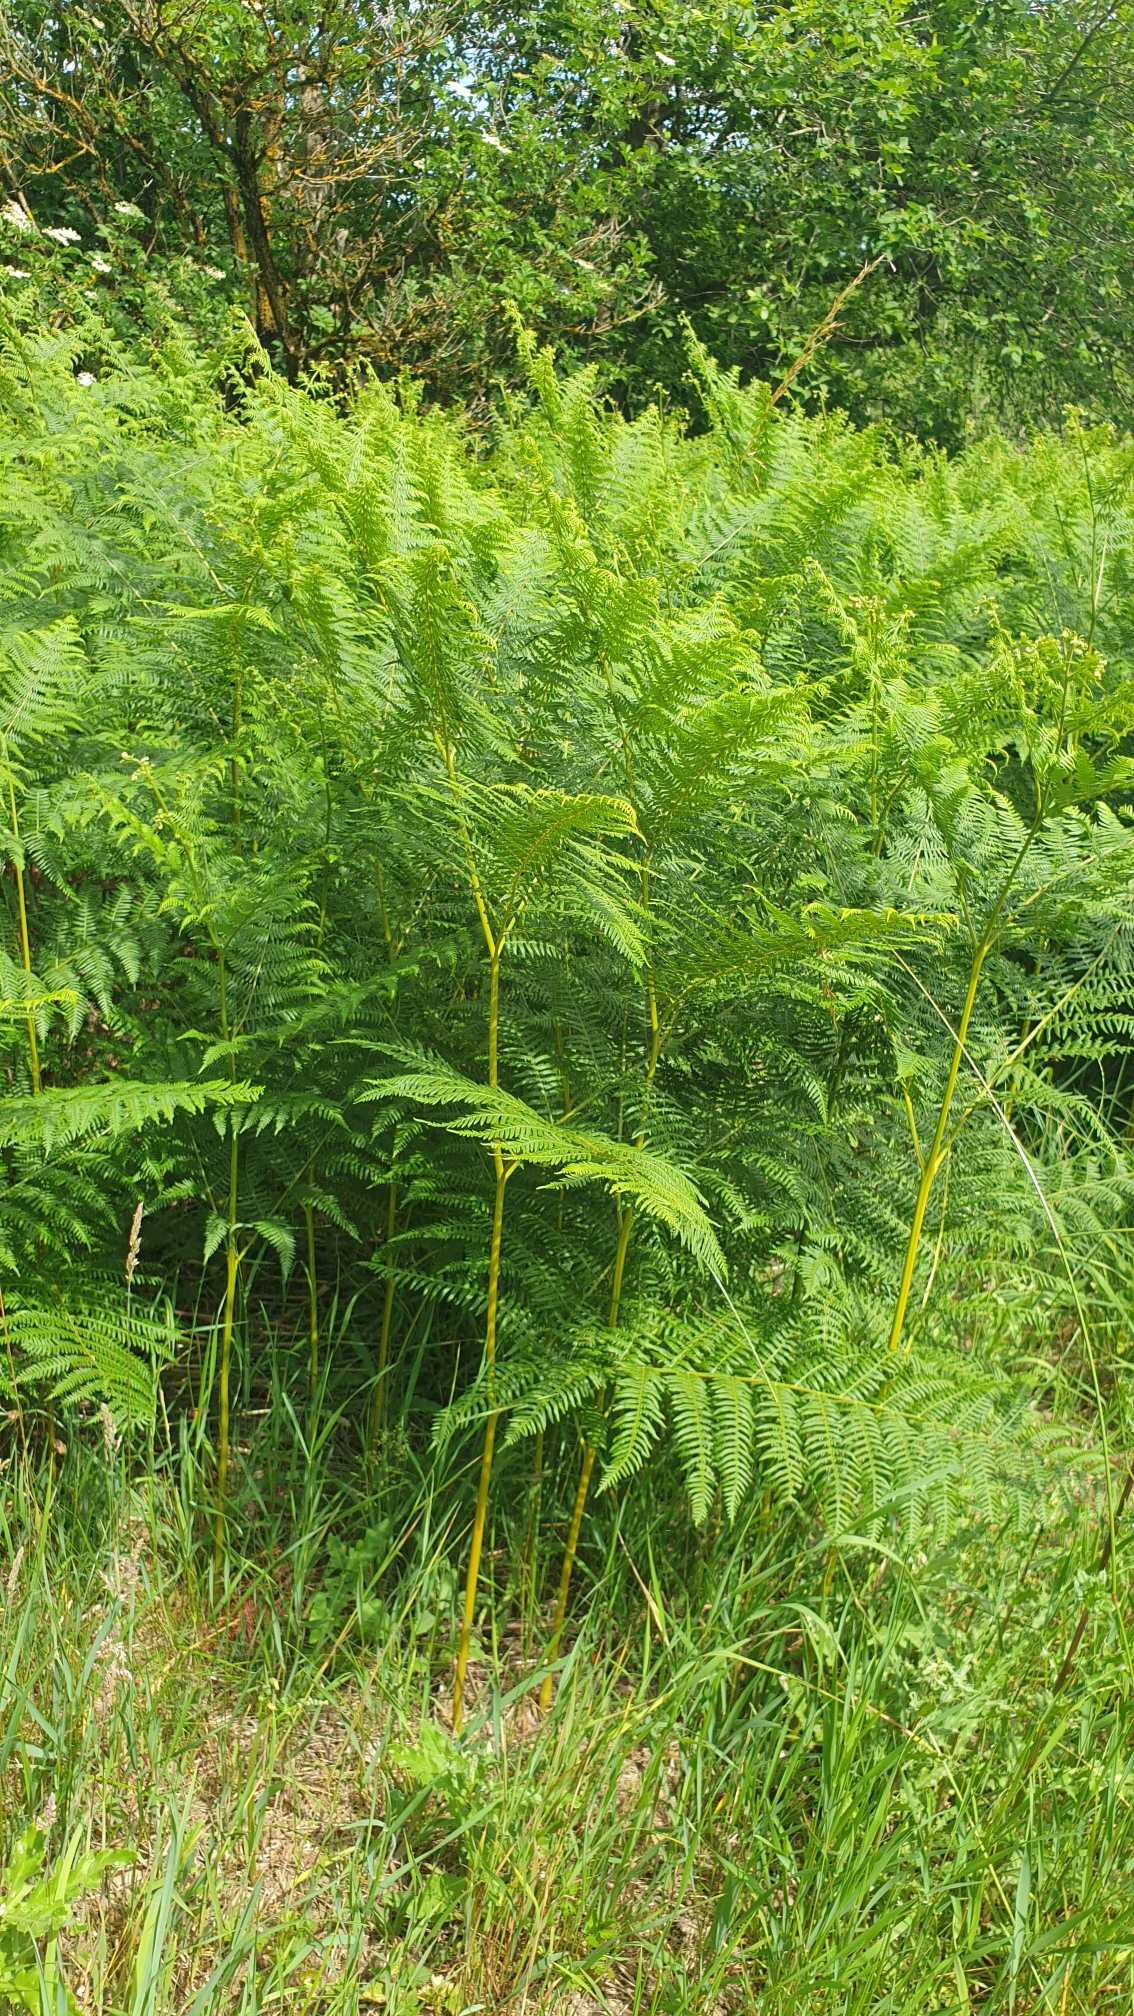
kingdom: Plantae
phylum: Tracheophyta
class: Polypodiopsida
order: Polypodiales
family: Dennstaedtiaceae
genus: Pteridium
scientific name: Pteridium aquilinum
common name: Ørnebregne
